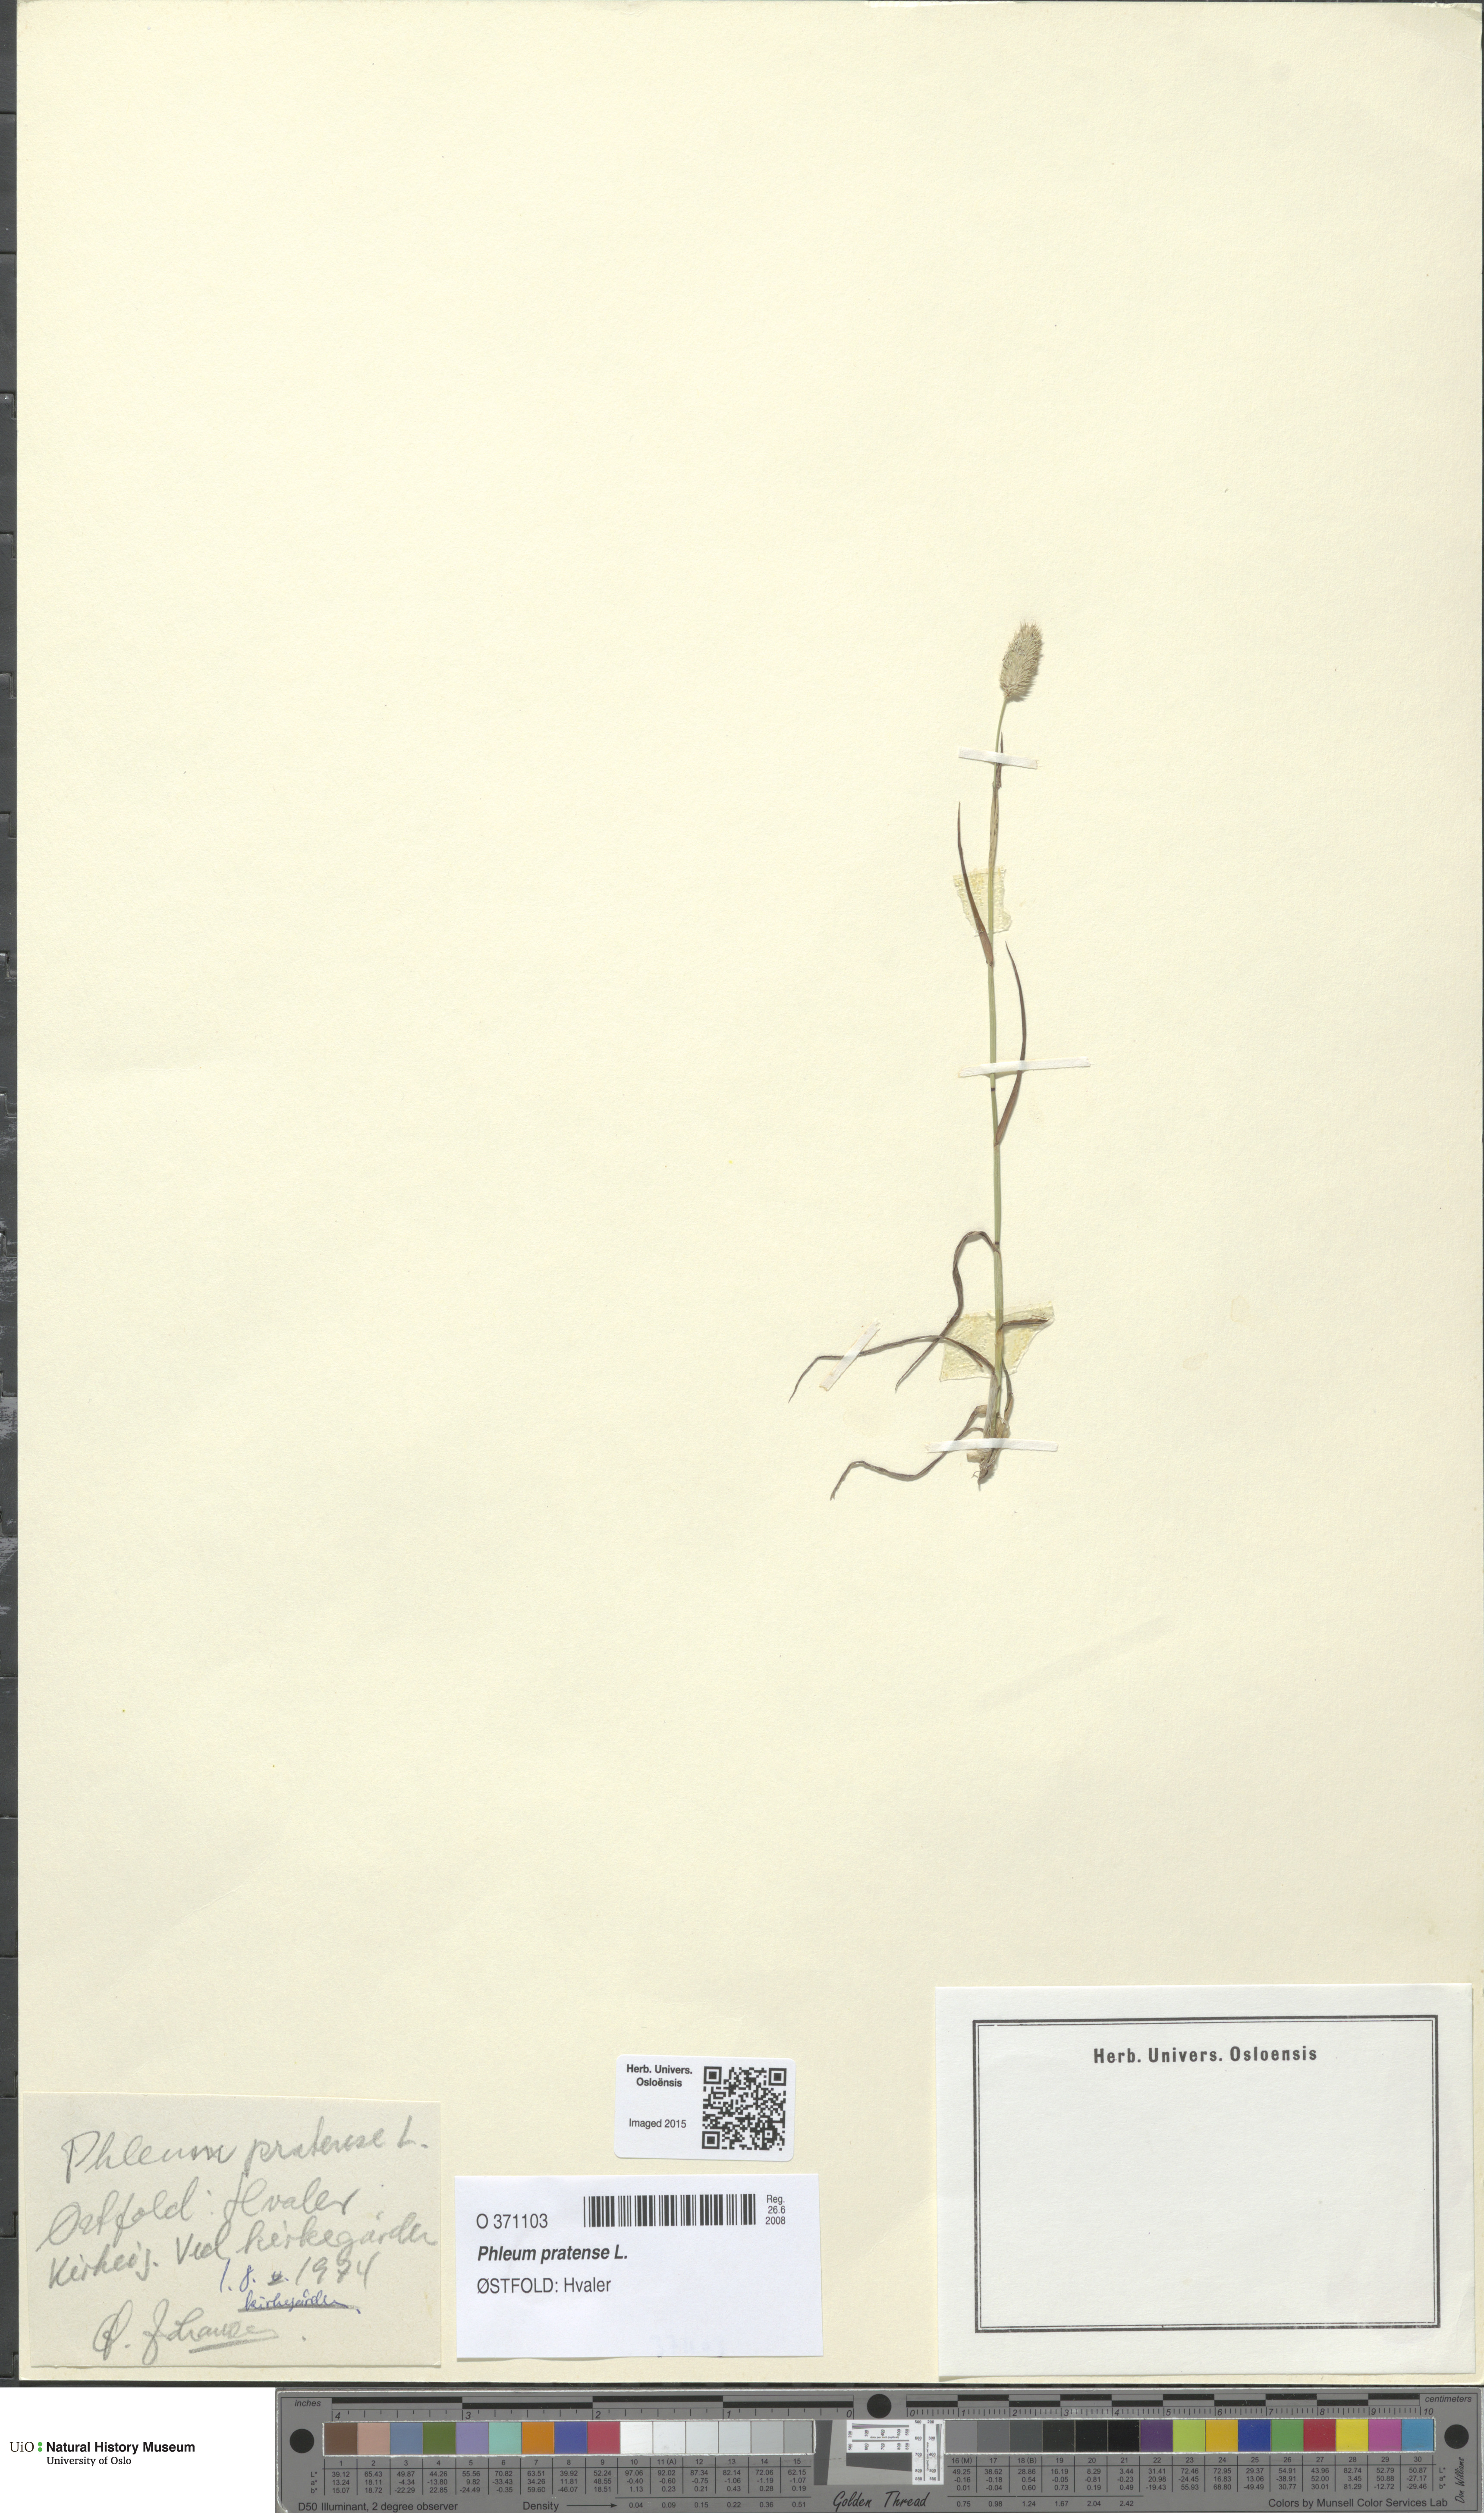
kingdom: Plantae
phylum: Tracheophyta
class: Liliopsida
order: Poales
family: Poaceae
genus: Phleum
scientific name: Phleum pratense
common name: Timothy grass
